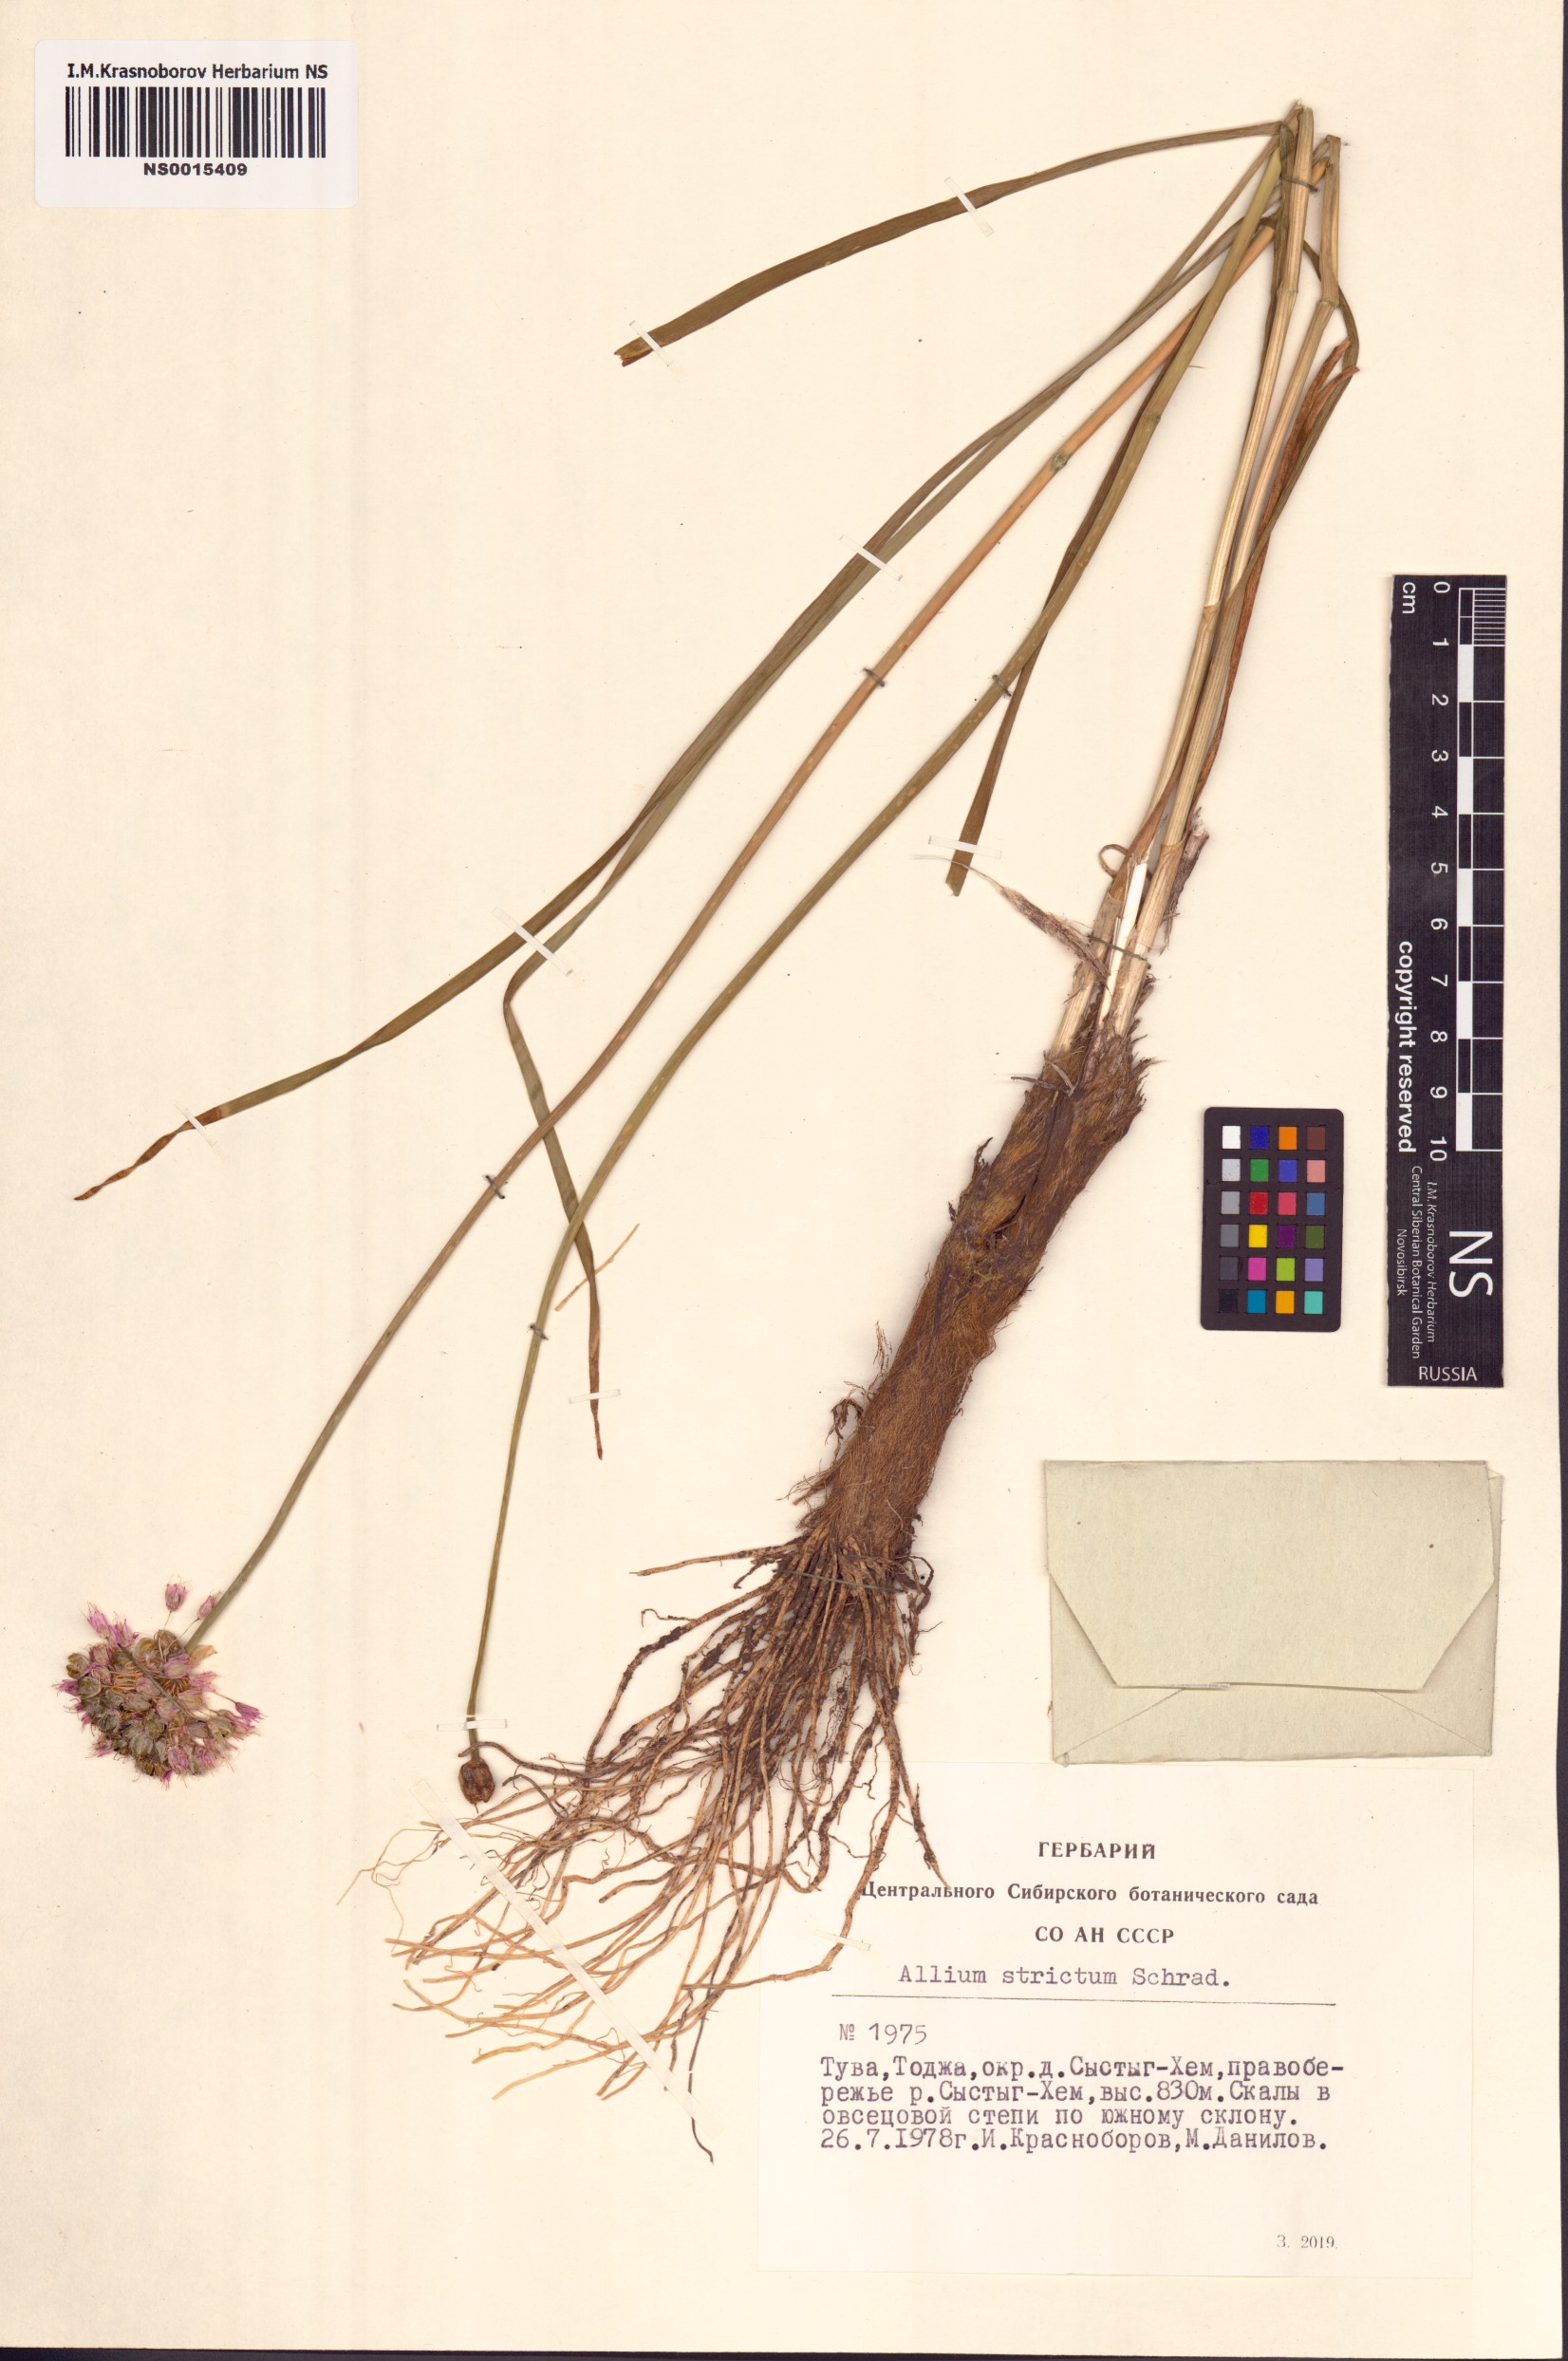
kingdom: Plantae
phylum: Tracheophyta
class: Liliopsida
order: Asparagales
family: Amaryllidaceae
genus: Allium
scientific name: Allium strictum
